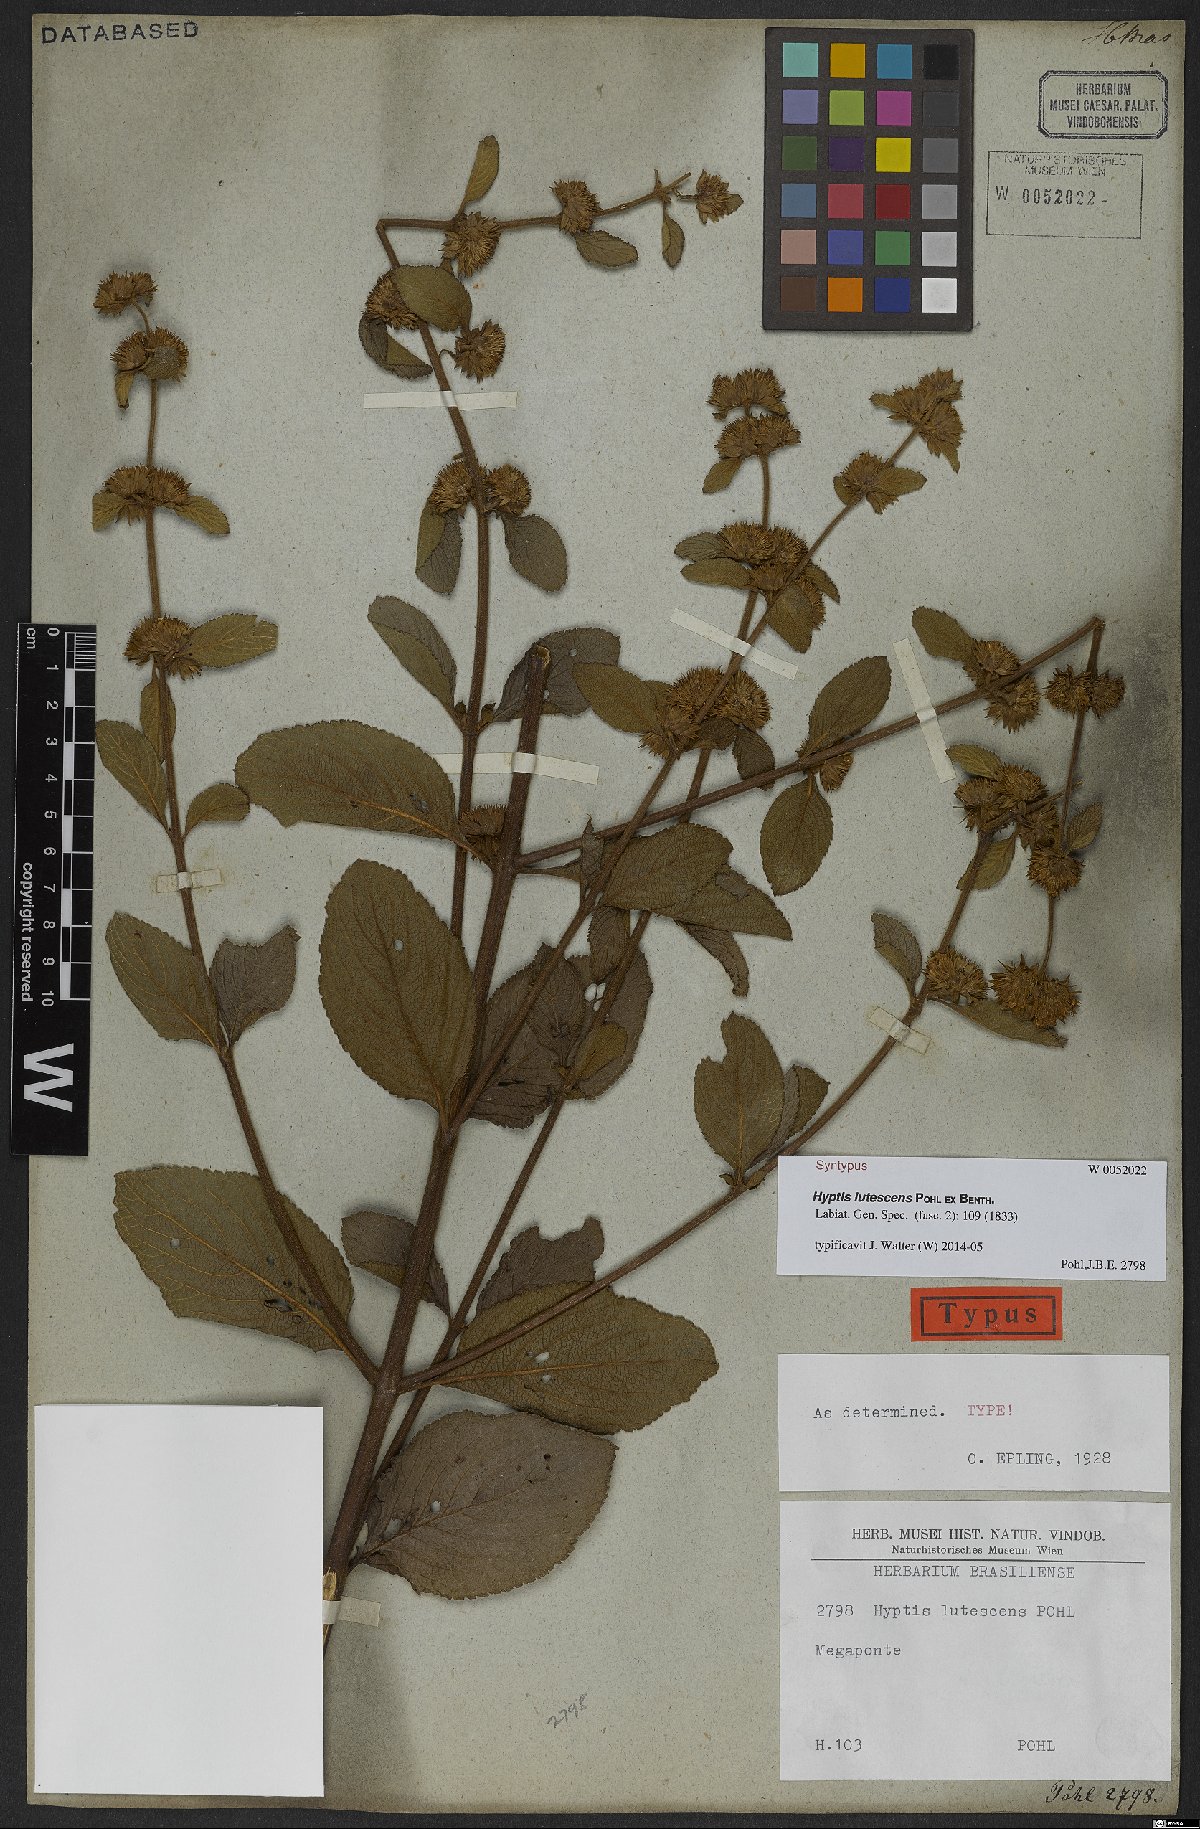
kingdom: Plantae
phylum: Tracheophyta
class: Magnoliopsida
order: Lamiales
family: Lamiaceae
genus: Hyptis
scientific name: Hyptis lutescens
